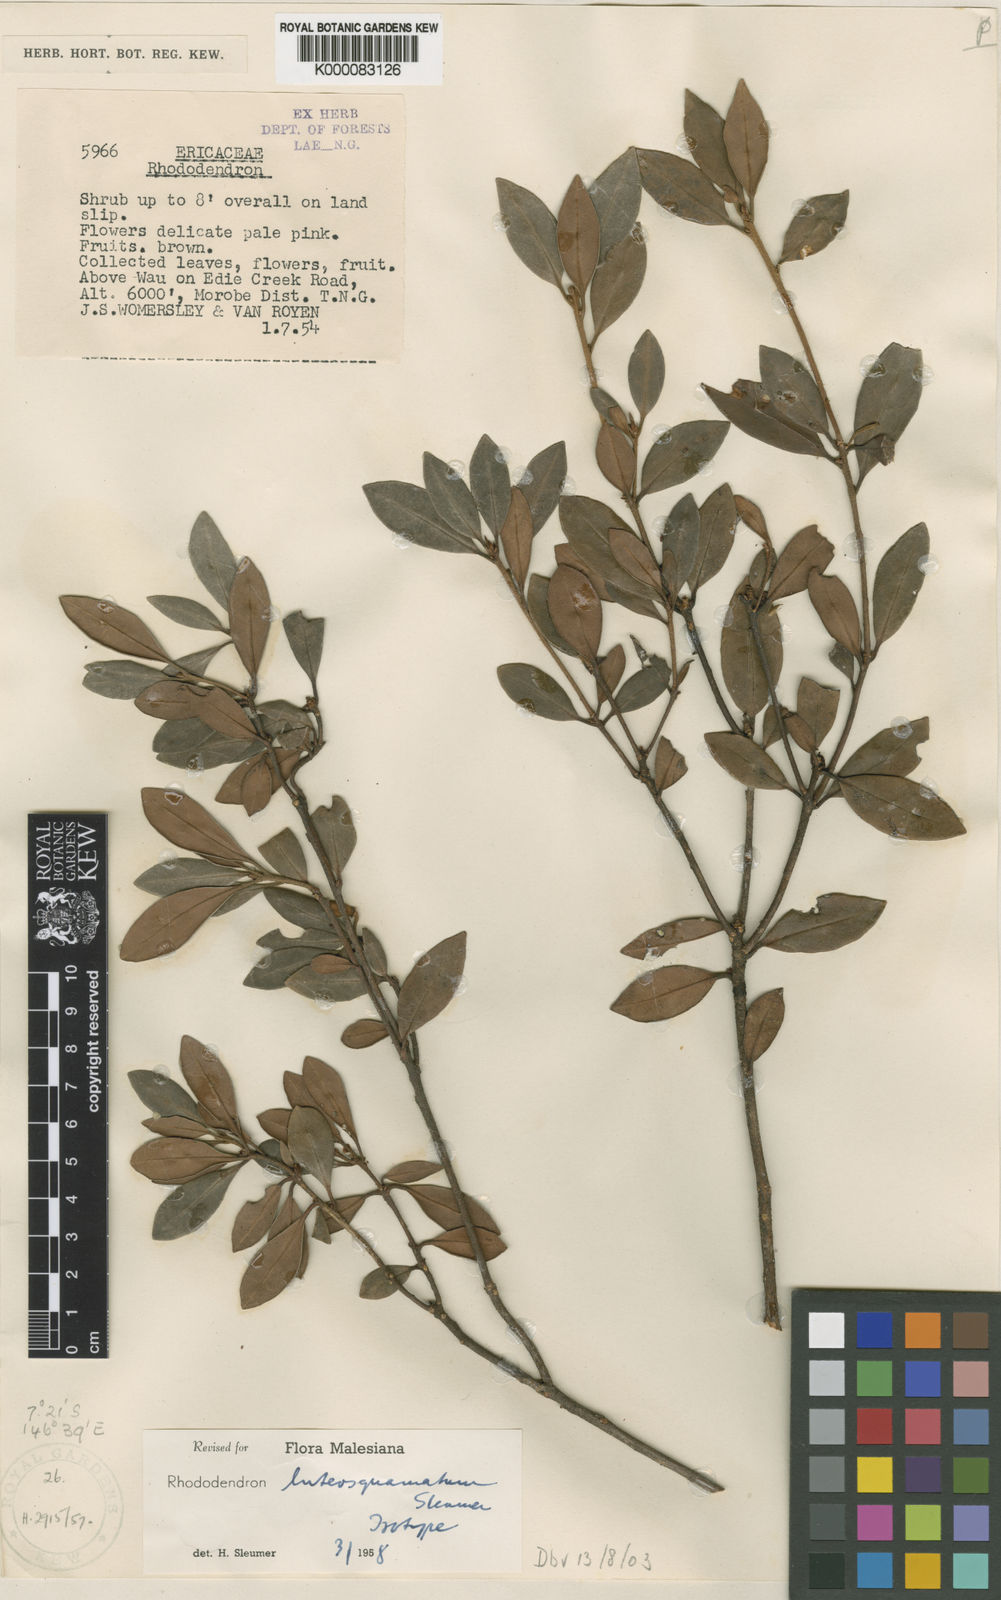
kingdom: Plantae
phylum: Tracheophyta
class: Magnoliopsida
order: Ericales
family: Ericaceae
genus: Rhododendron
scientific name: Rhododendron inconspicuum
